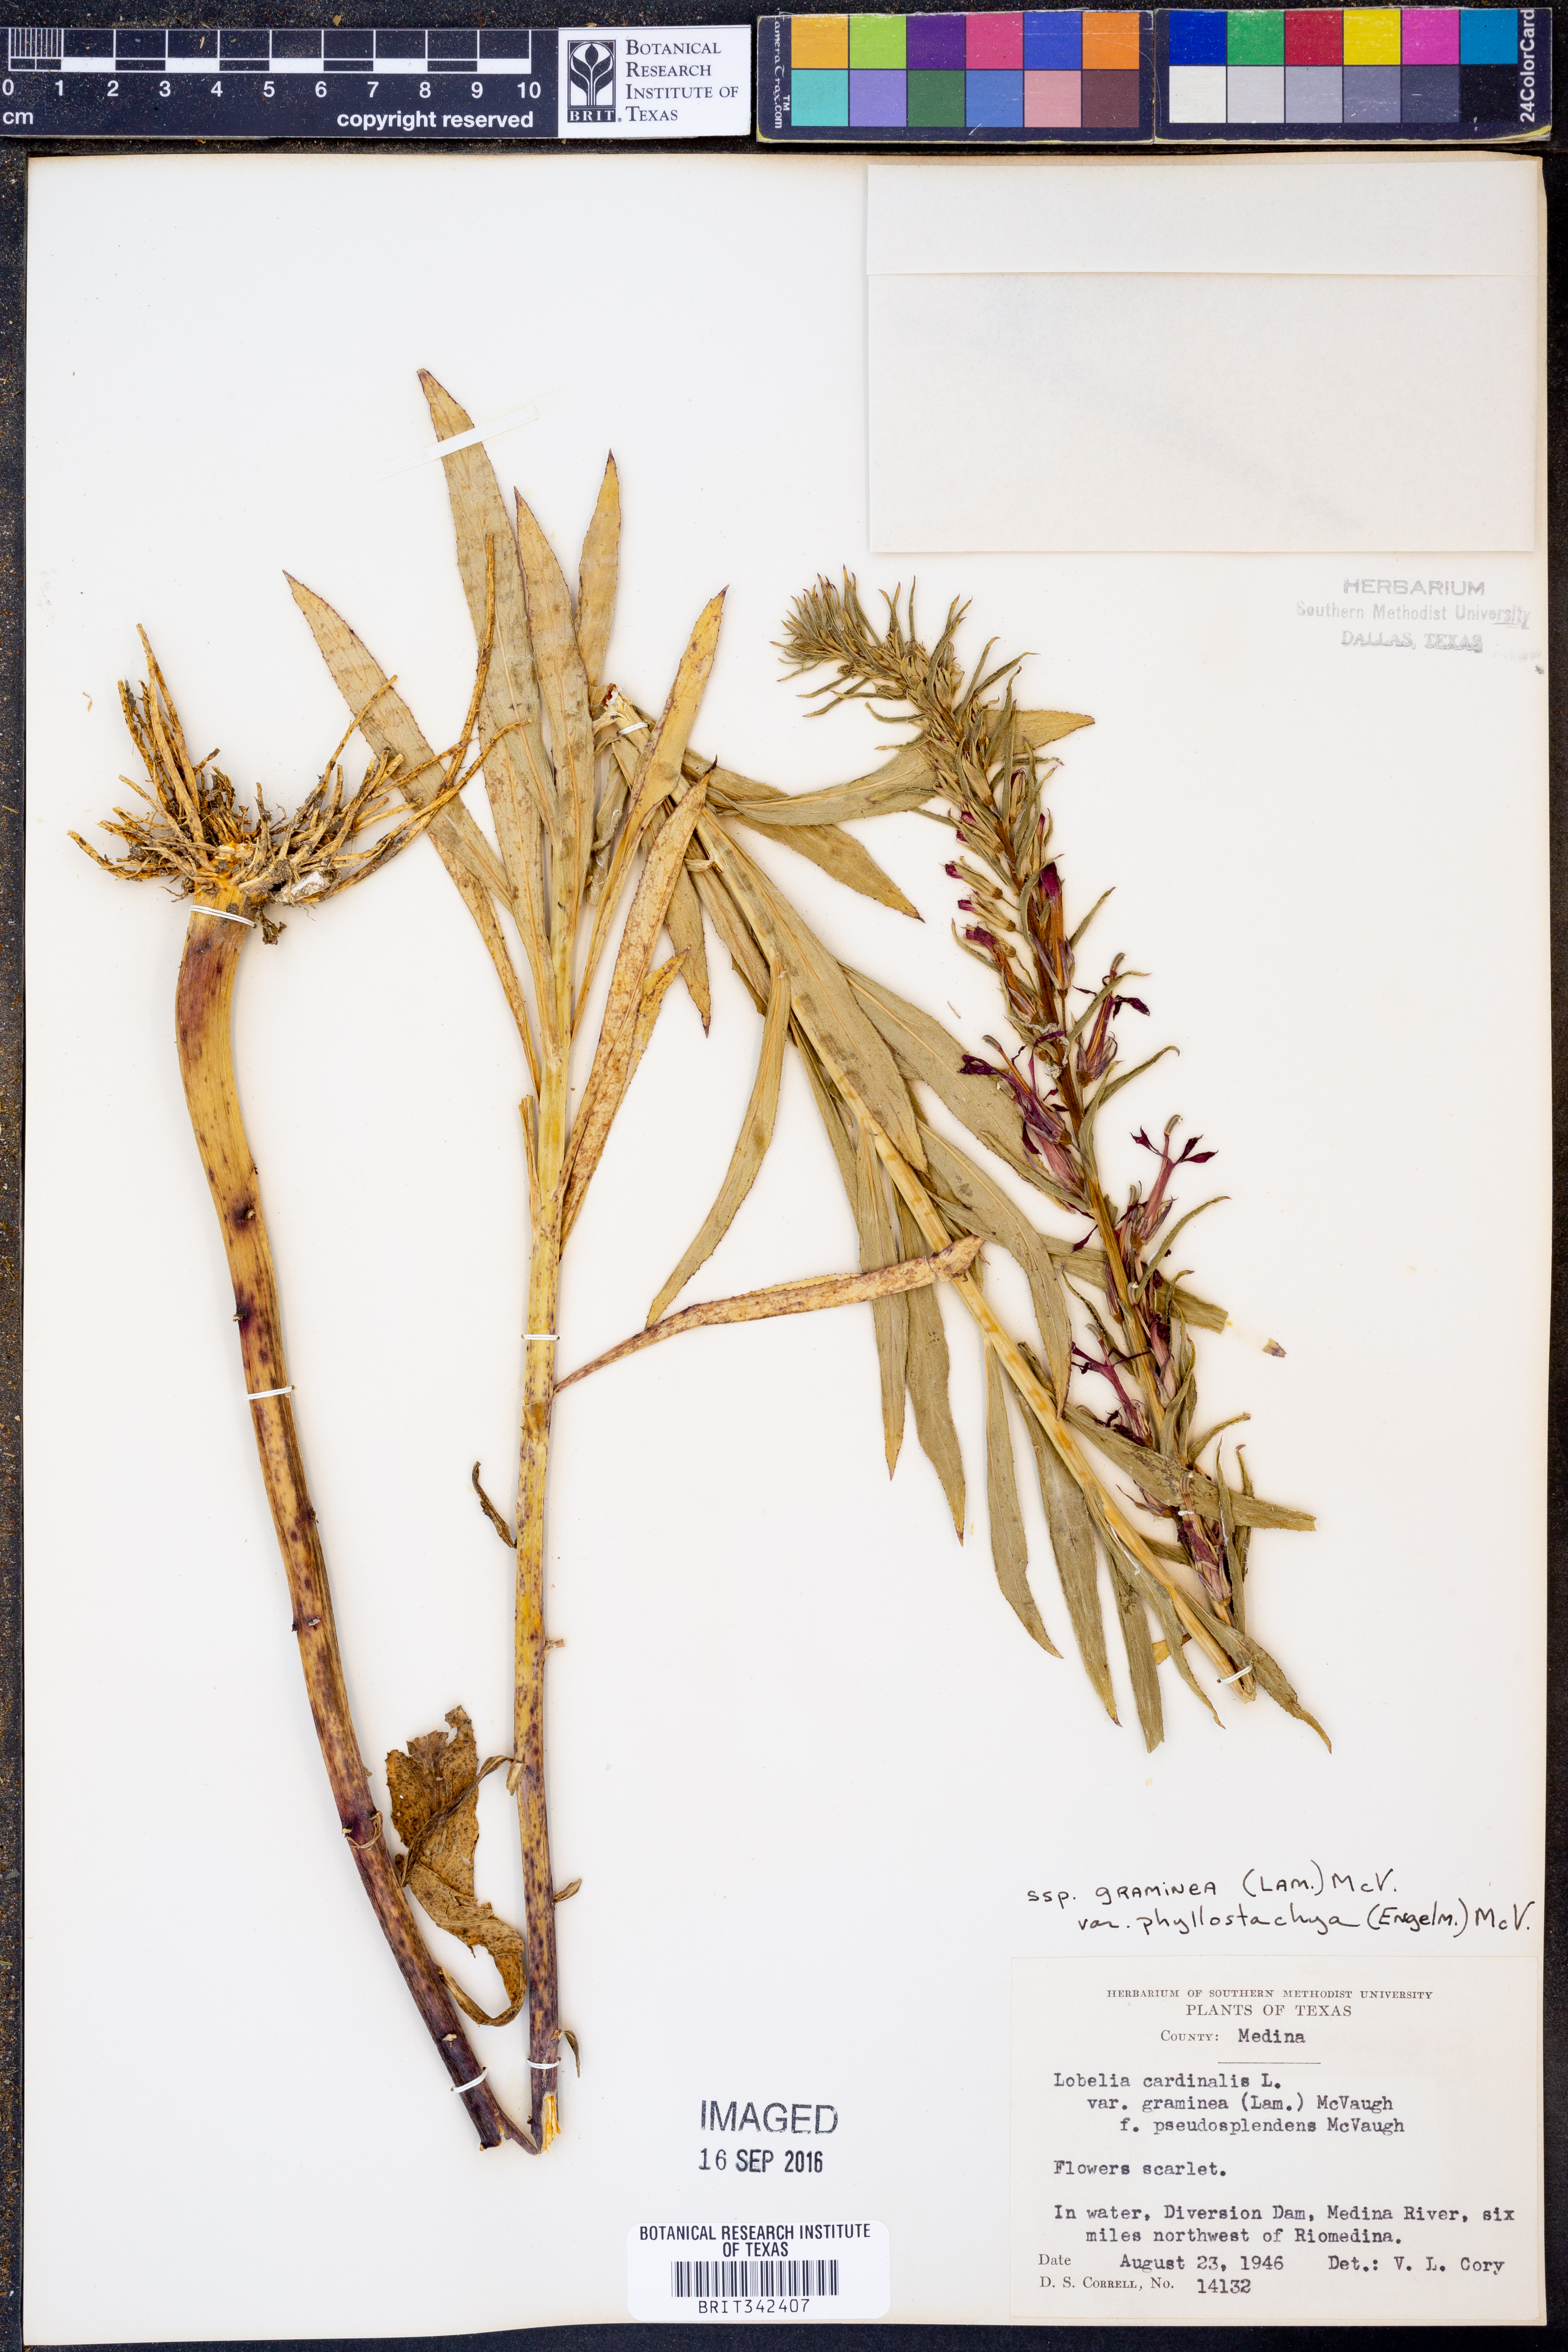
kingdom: Plantae
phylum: Tracheophyta
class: Magnoliopsida
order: Asterales
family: Campanulaceae
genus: Lobelia
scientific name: Lobelia cardinalis
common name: Cardinal flower
